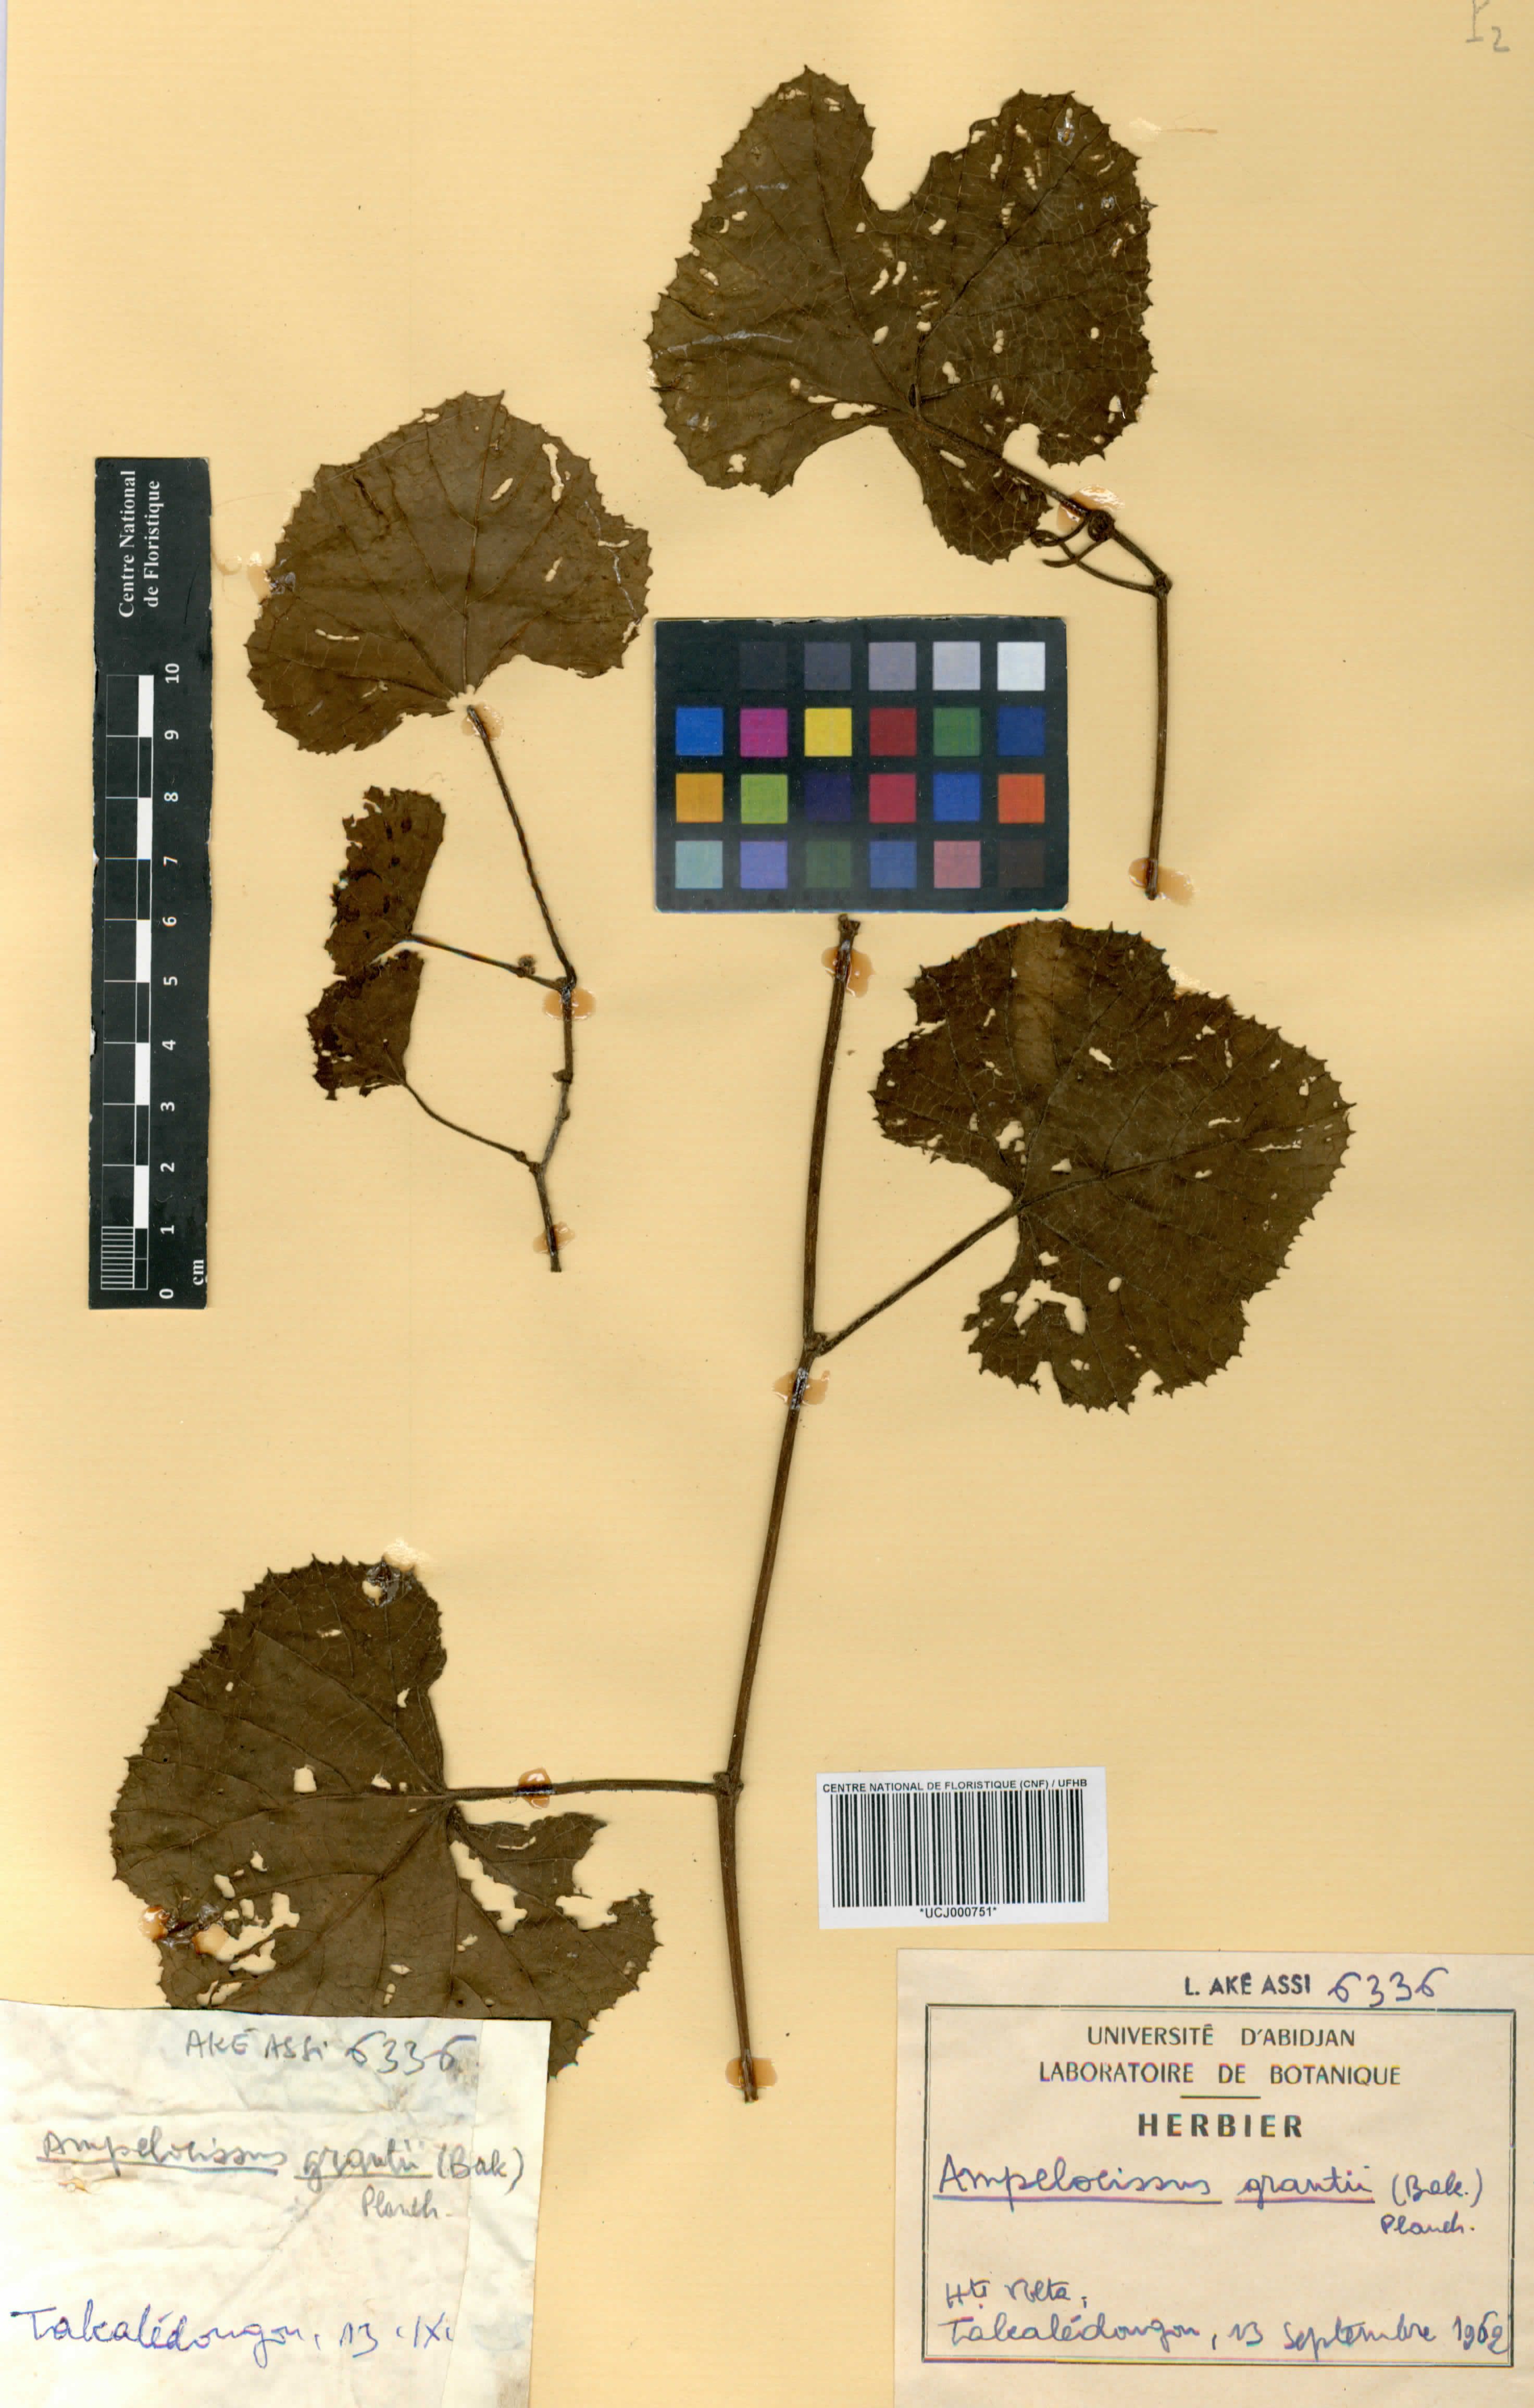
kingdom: Plantae
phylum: Tracheophyta
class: Magnoliopsida
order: Vitales
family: Vitaceae
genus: Ampelocissus
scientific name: Ampelocissus africana
